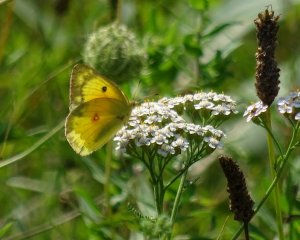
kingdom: Animalia
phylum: Arthropoda
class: Insecta
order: Lepidoptera
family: Pieridae
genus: Colias
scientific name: Colias eurytheme
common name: Orange Sulphur
